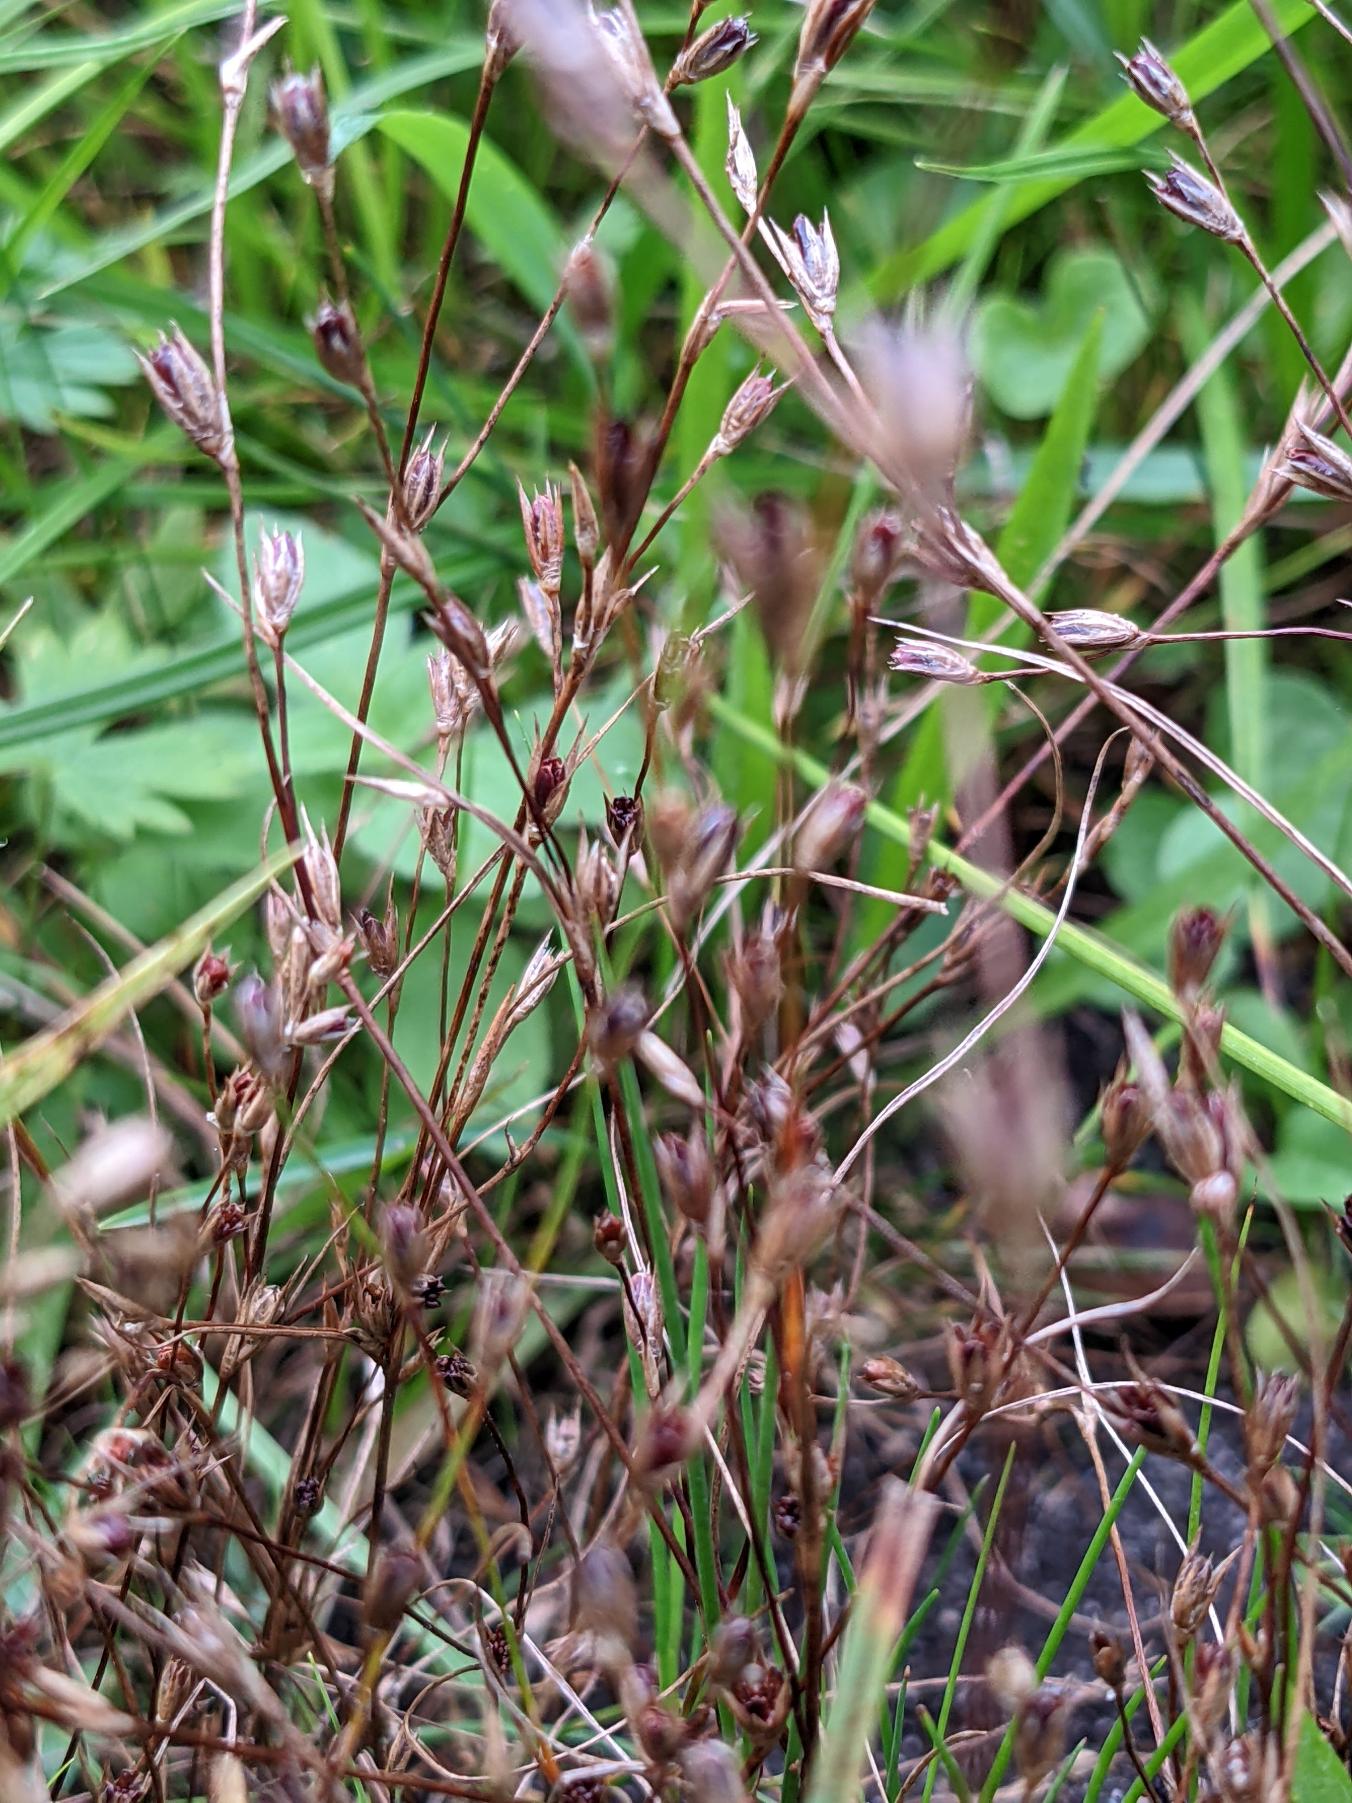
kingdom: Plantae
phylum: Tracheophyta
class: Liliopsida
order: Poales
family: Juncaceae
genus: Juncus
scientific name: Juncus bufonius
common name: Tudse-siv
